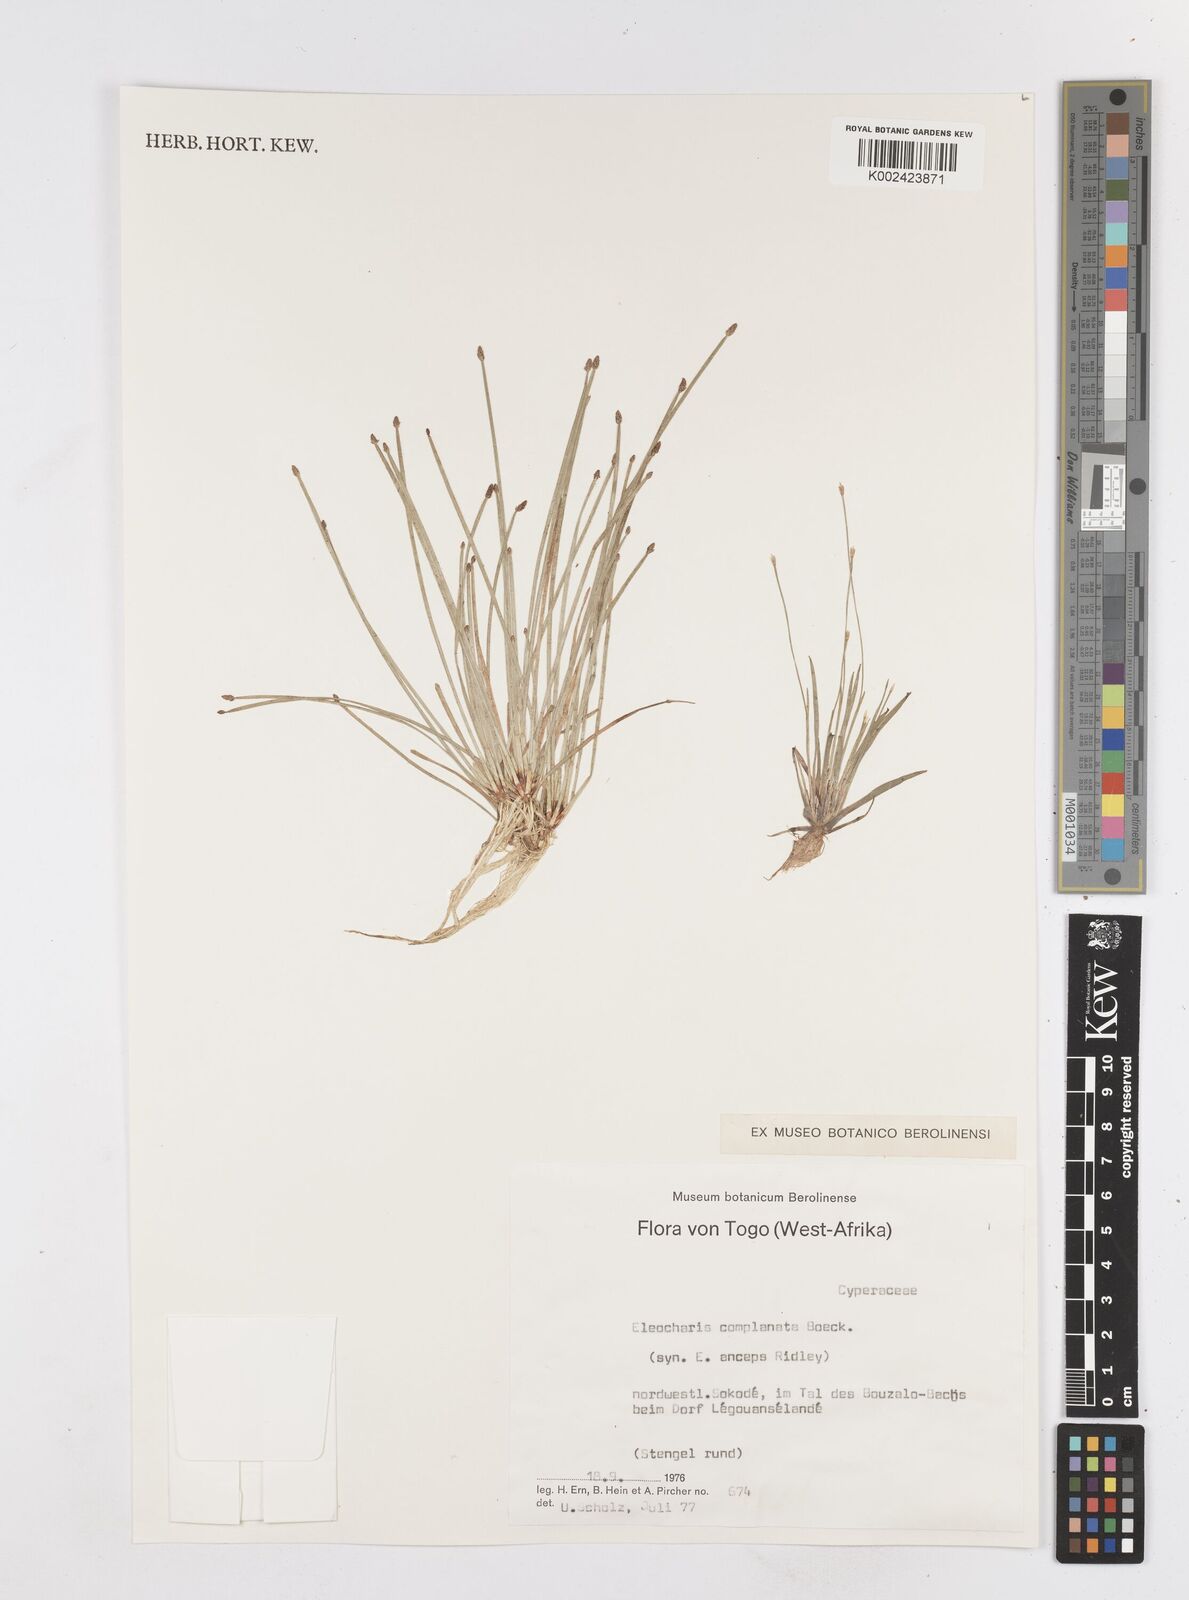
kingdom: Plantae
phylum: Tracheophyta
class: Liliopsida
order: Poales
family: Cyperaceae
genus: Eleocharis
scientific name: Eleocharis complanata
